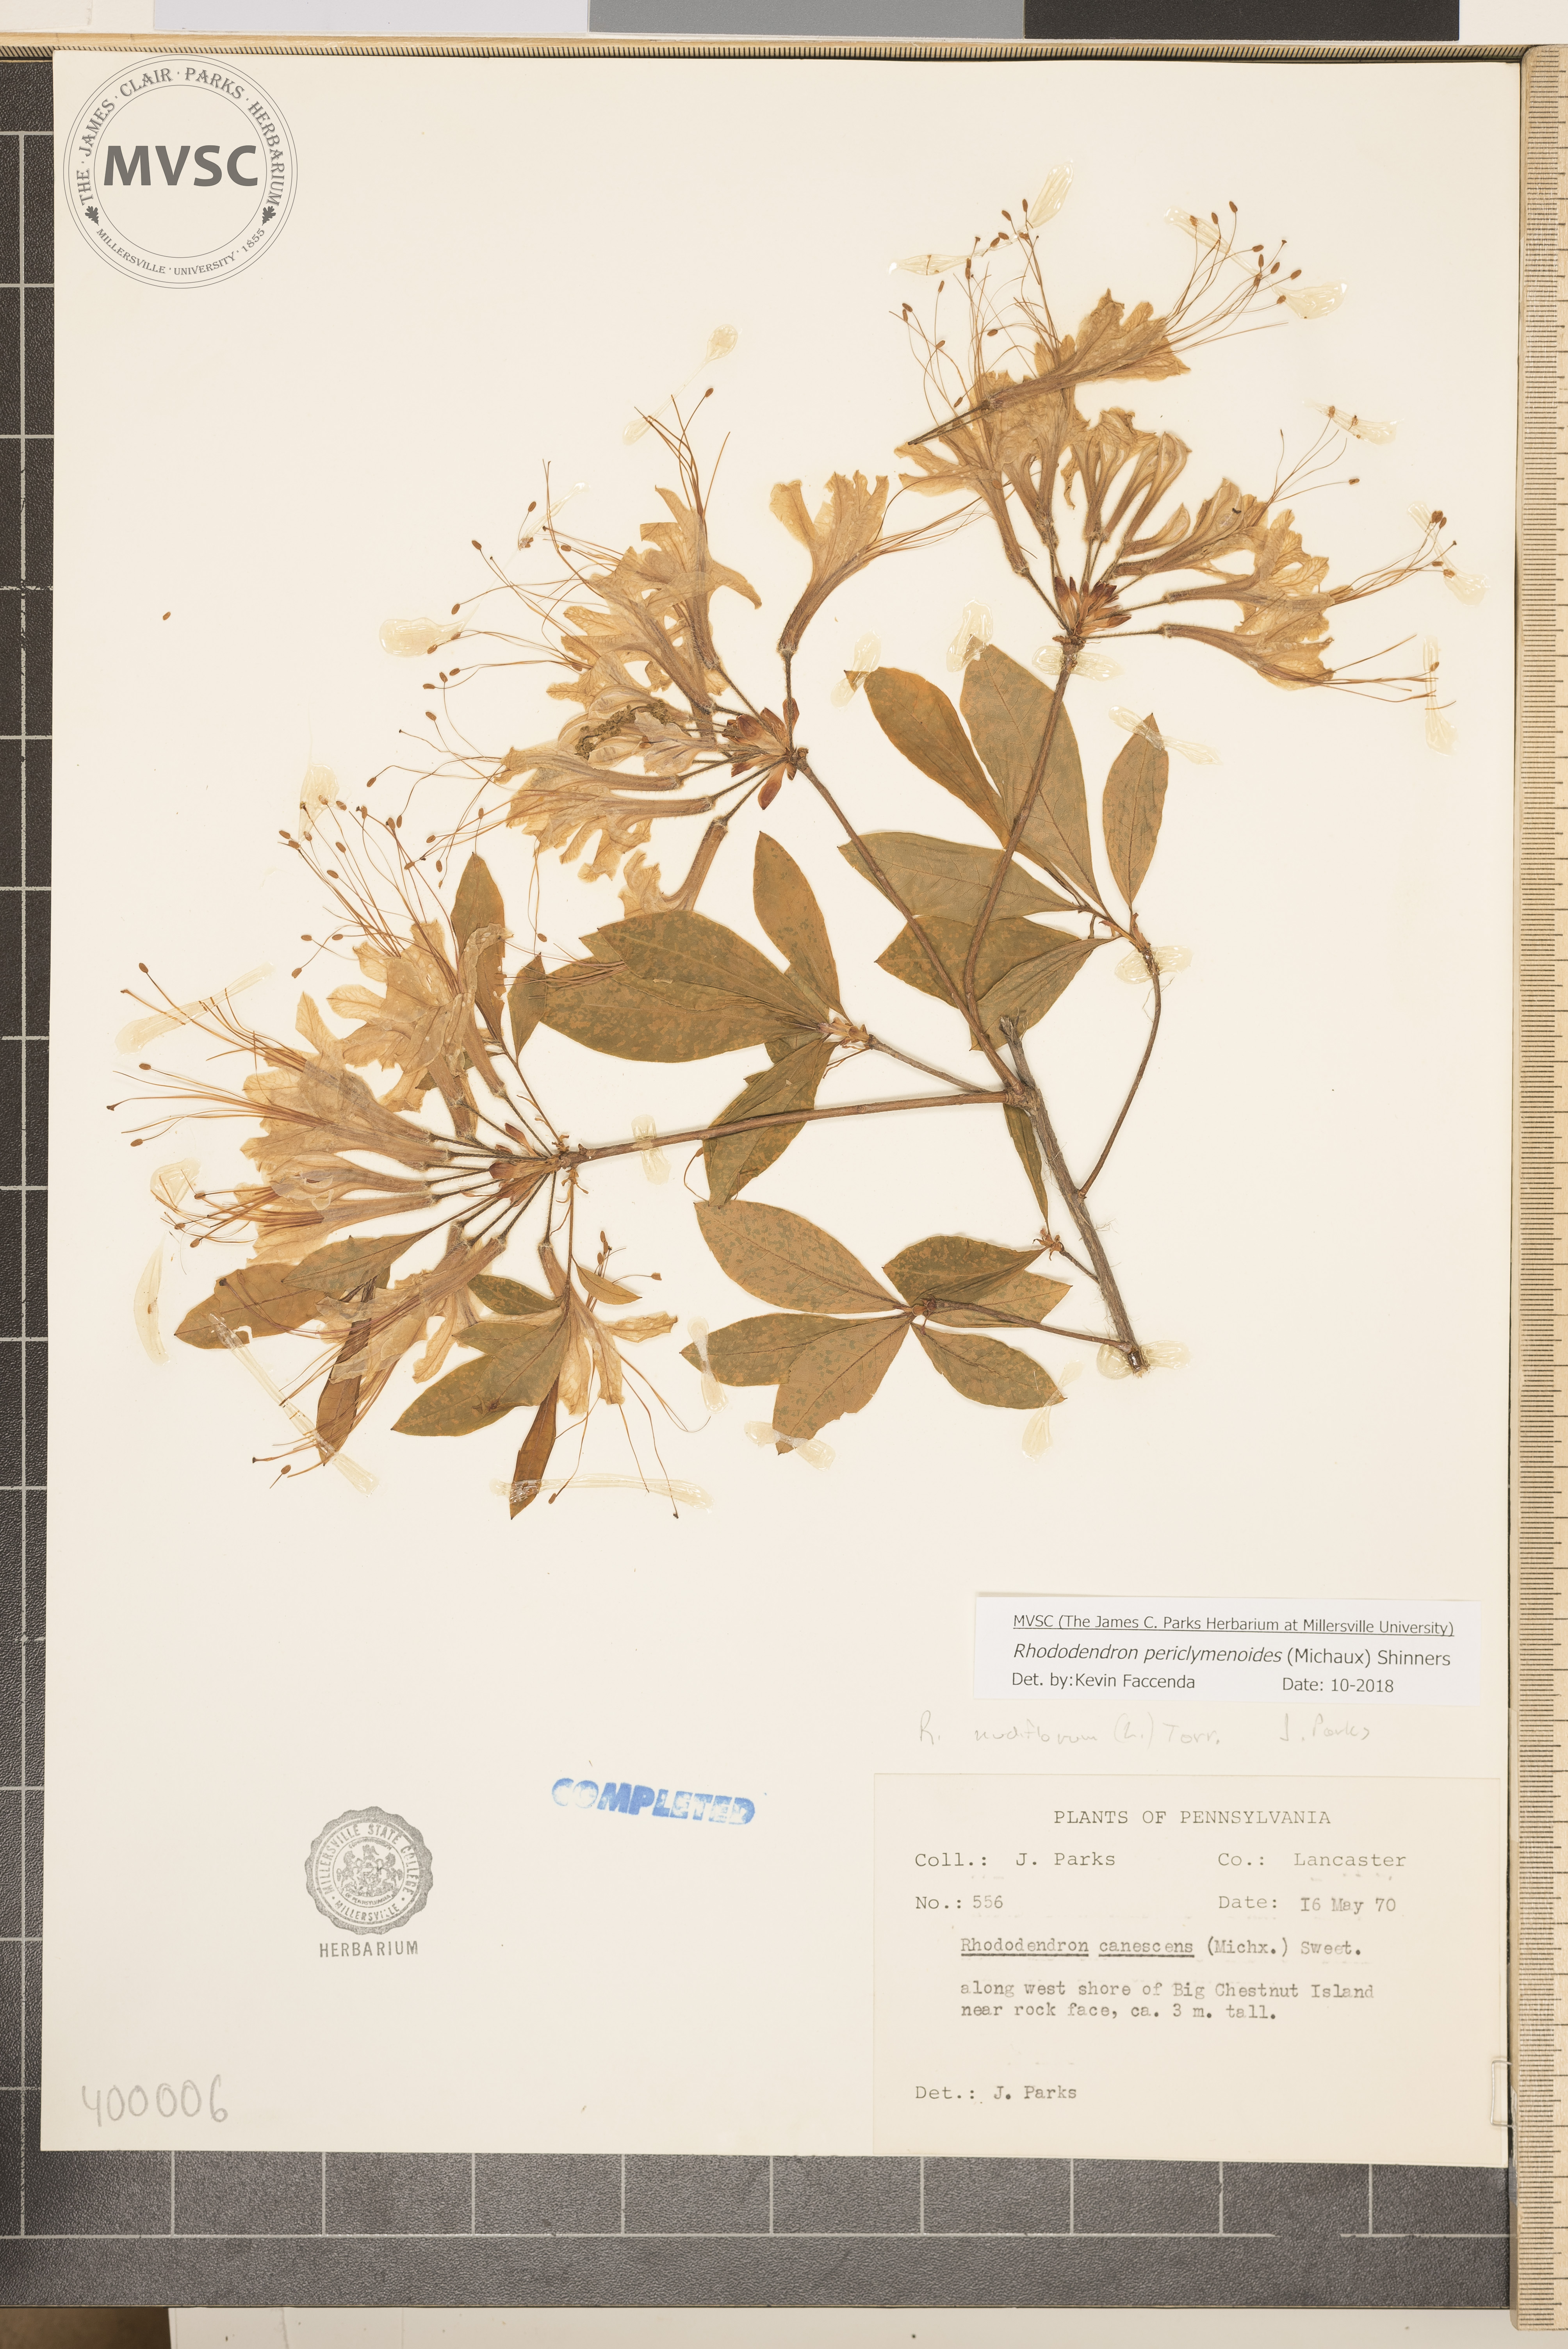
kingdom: Plantae
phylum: Tracheophyta
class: Magnoliopsida
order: Ericales
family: Ericaceae
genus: Rhododendron
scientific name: Rhododendron periclymenoides
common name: Election-pink
